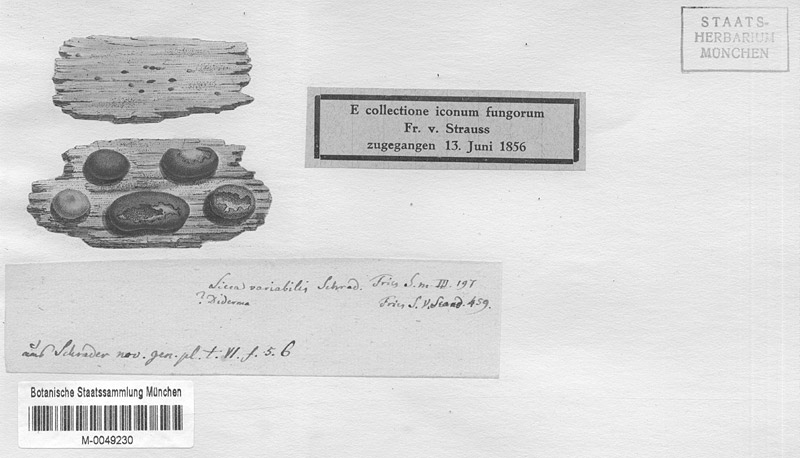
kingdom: Protozoa
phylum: Mycetozoa
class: Myxomycetes
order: Cribrariales
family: Liceaceae
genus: Licea
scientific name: Licea variabilis
